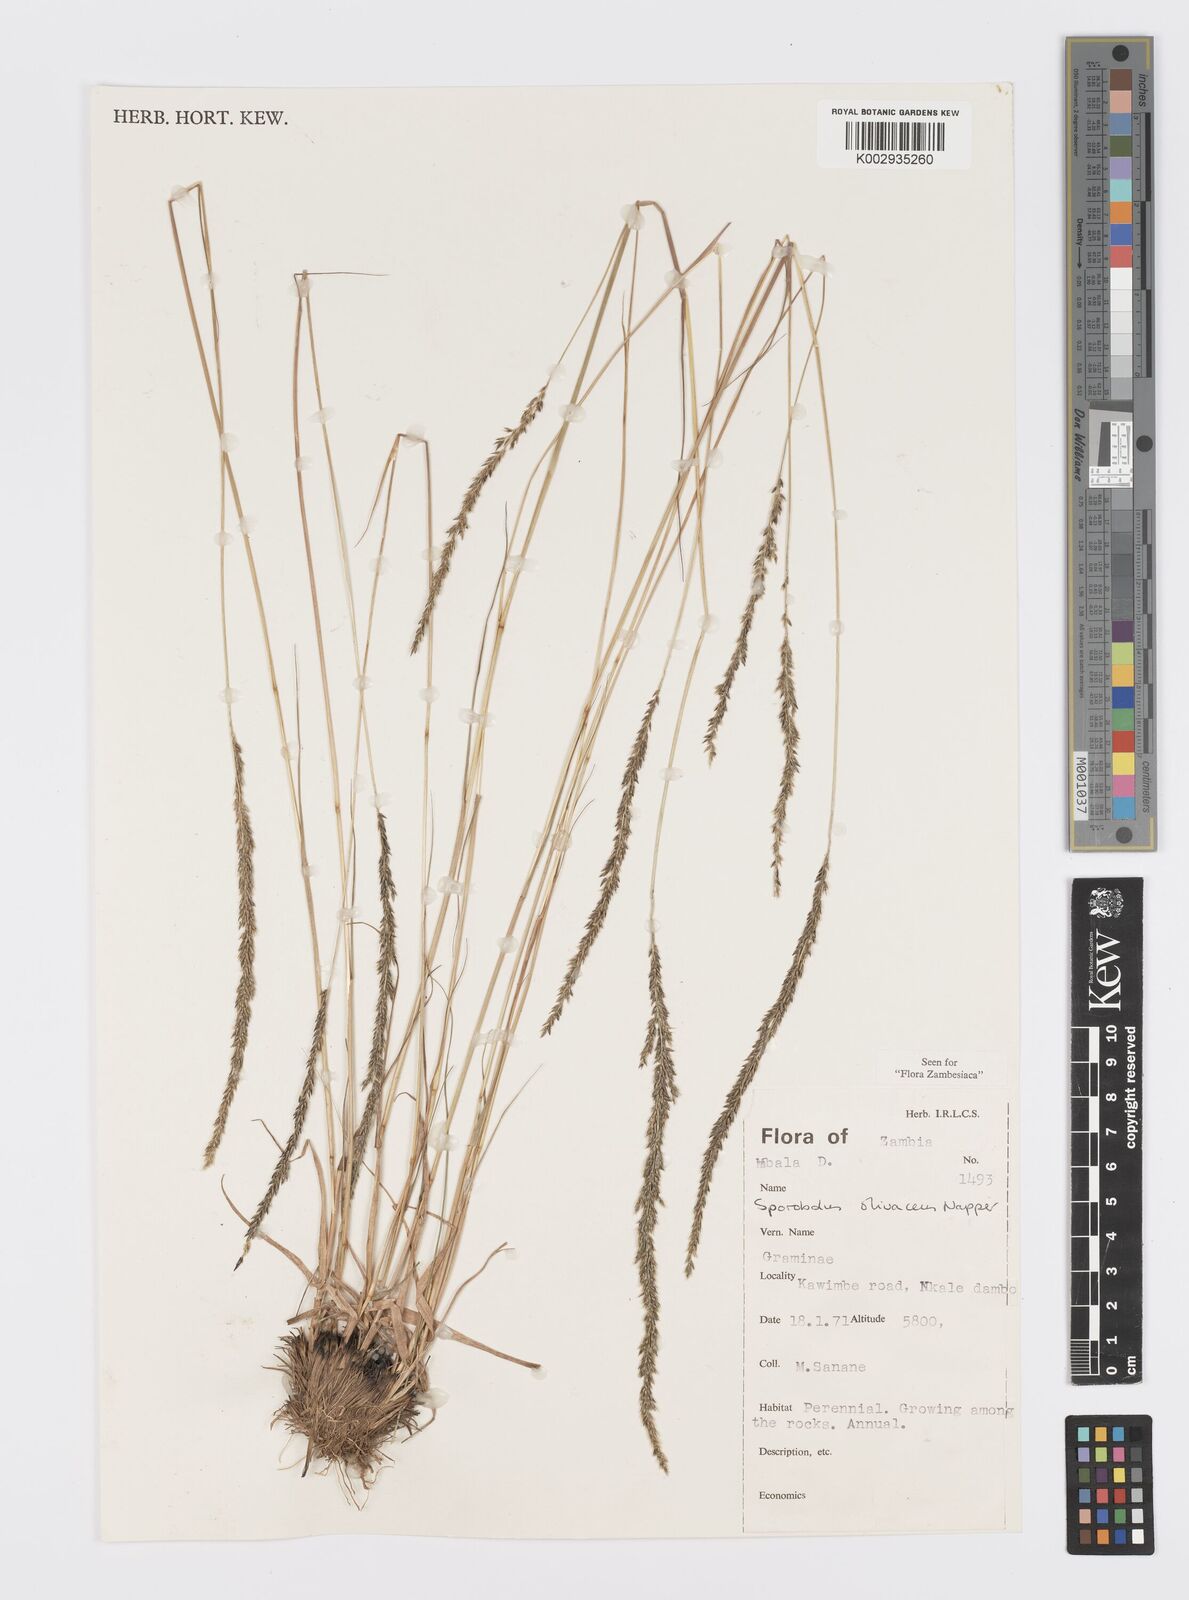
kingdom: Plantae
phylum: Tracheophyta
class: Liliopsida
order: Poales
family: Poaceae
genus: Sporobolus
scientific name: Sporobolus olivaceus
